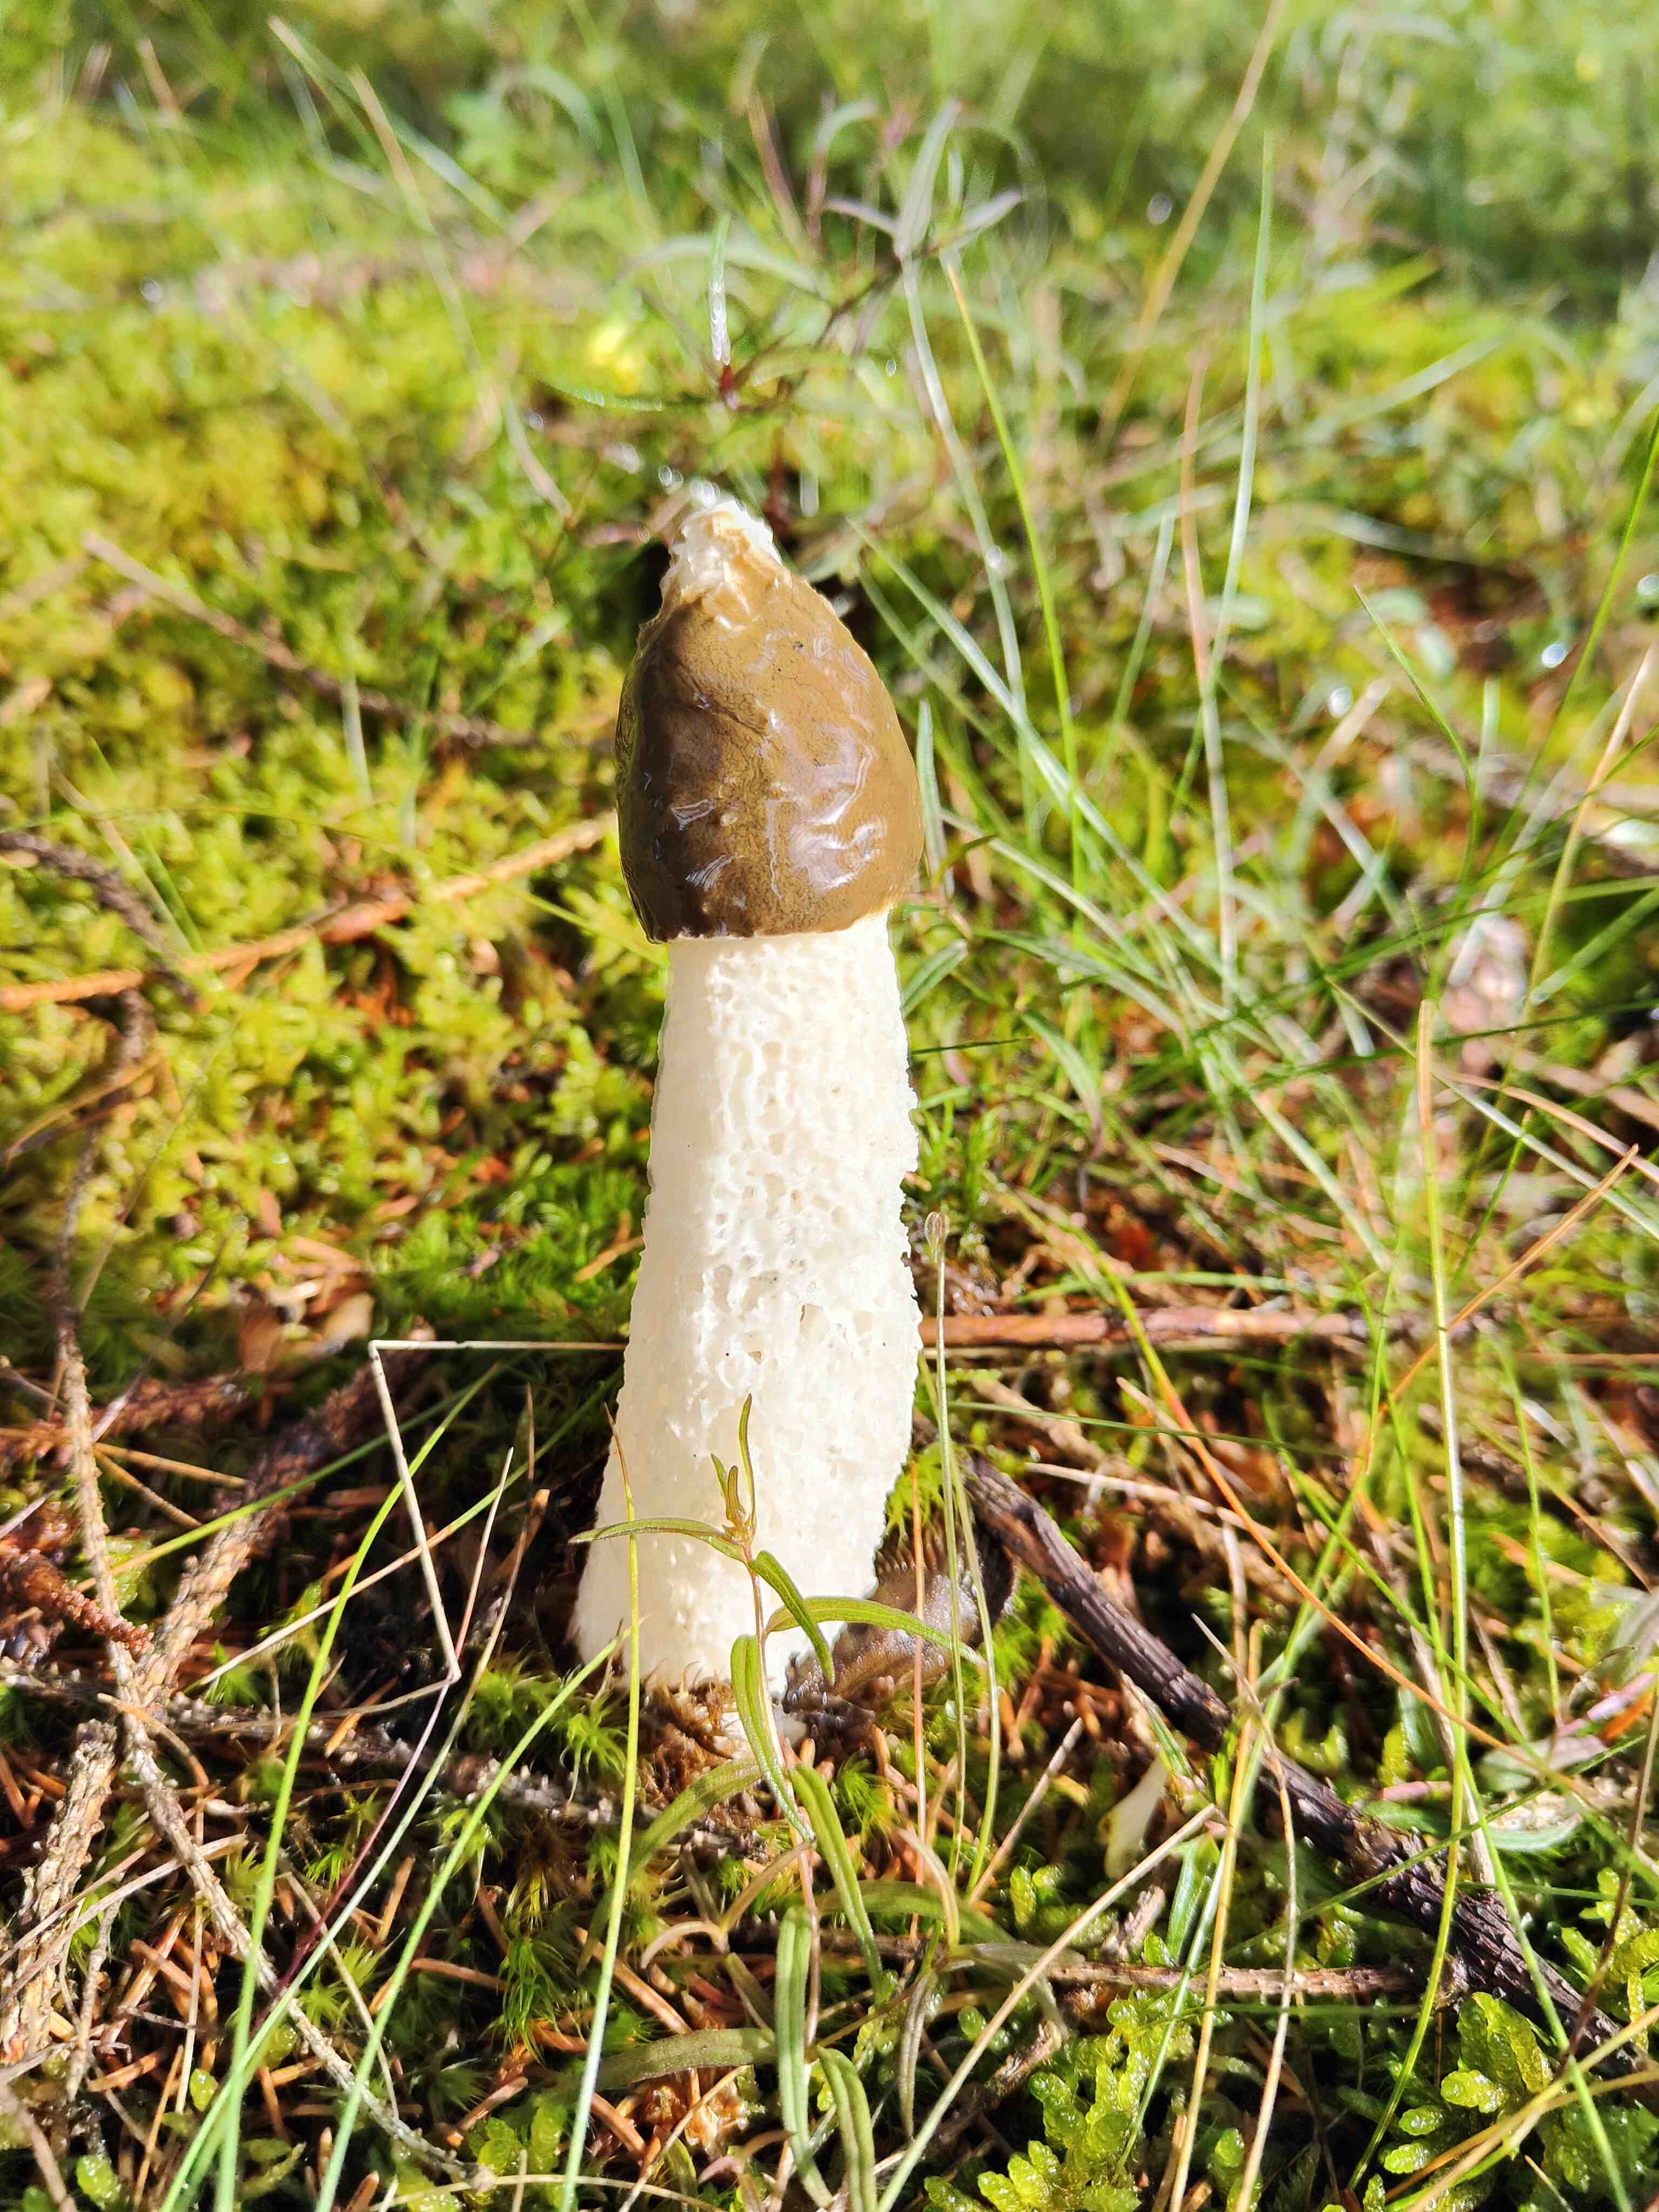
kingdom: Fungi
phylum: Basidiomycota
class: Agaricomycetes
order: Phallales
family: Phallaceae
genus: Phallus
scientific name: Phallus impudicus
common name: almindelig stinksvamp
